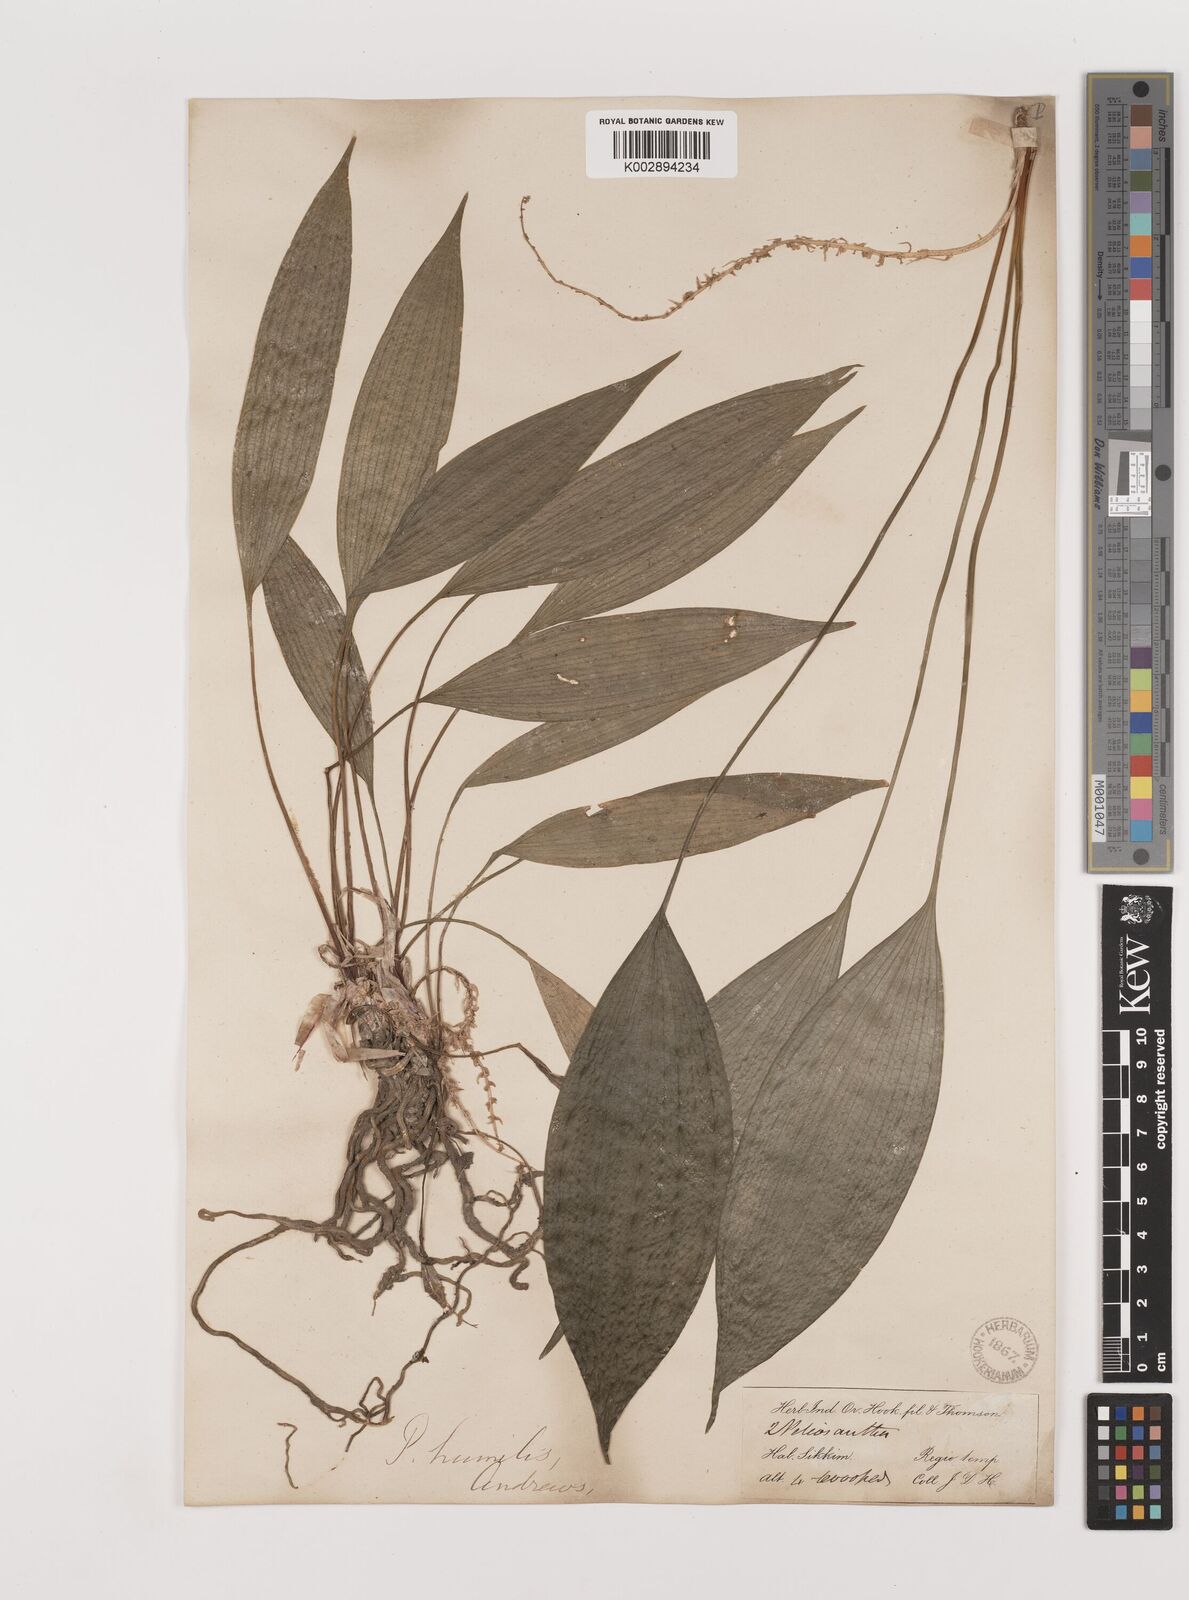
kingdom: Plantae
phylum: Tracheophyta
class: Liliopsida
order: Asparagales
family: Asparagaceae
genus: Peliosanthes
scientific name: Peliosanthes teta
